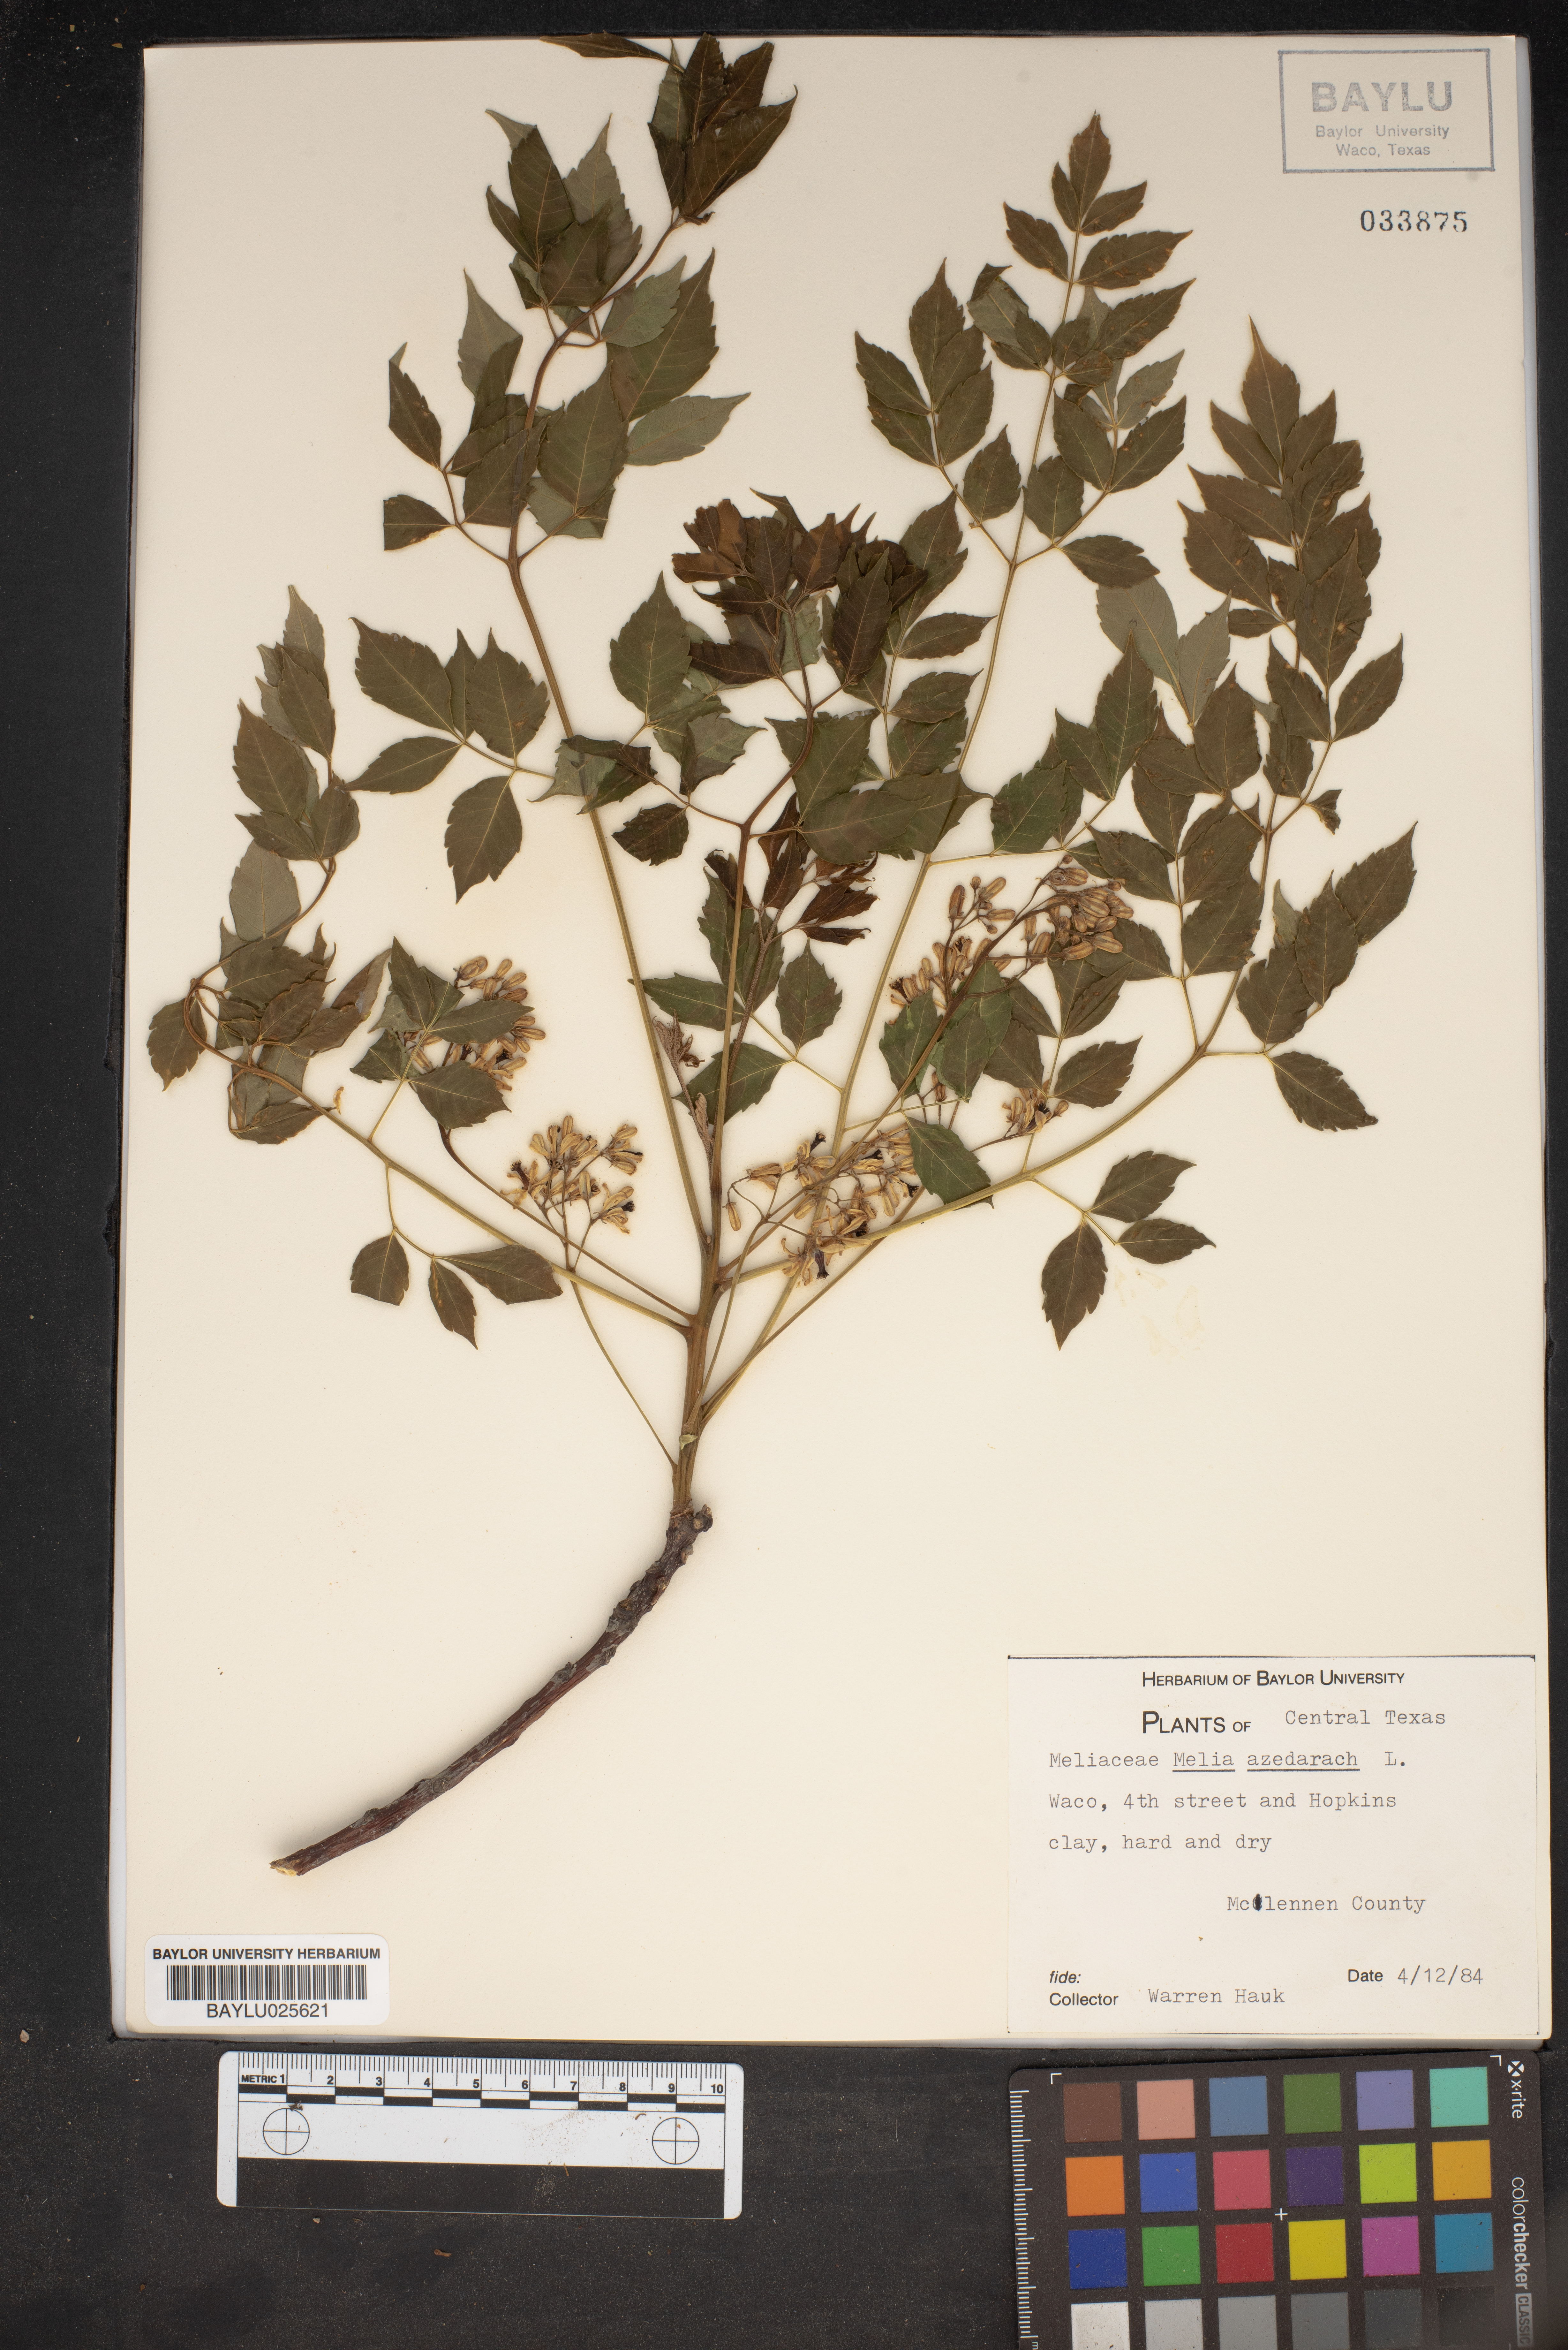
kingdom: Plantae
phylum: Tracheophyta
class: Magnoliopsida
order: Sapindales
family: Meliaceae
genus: Melia
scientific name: Melia azedarach
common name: Chinaberrytree
